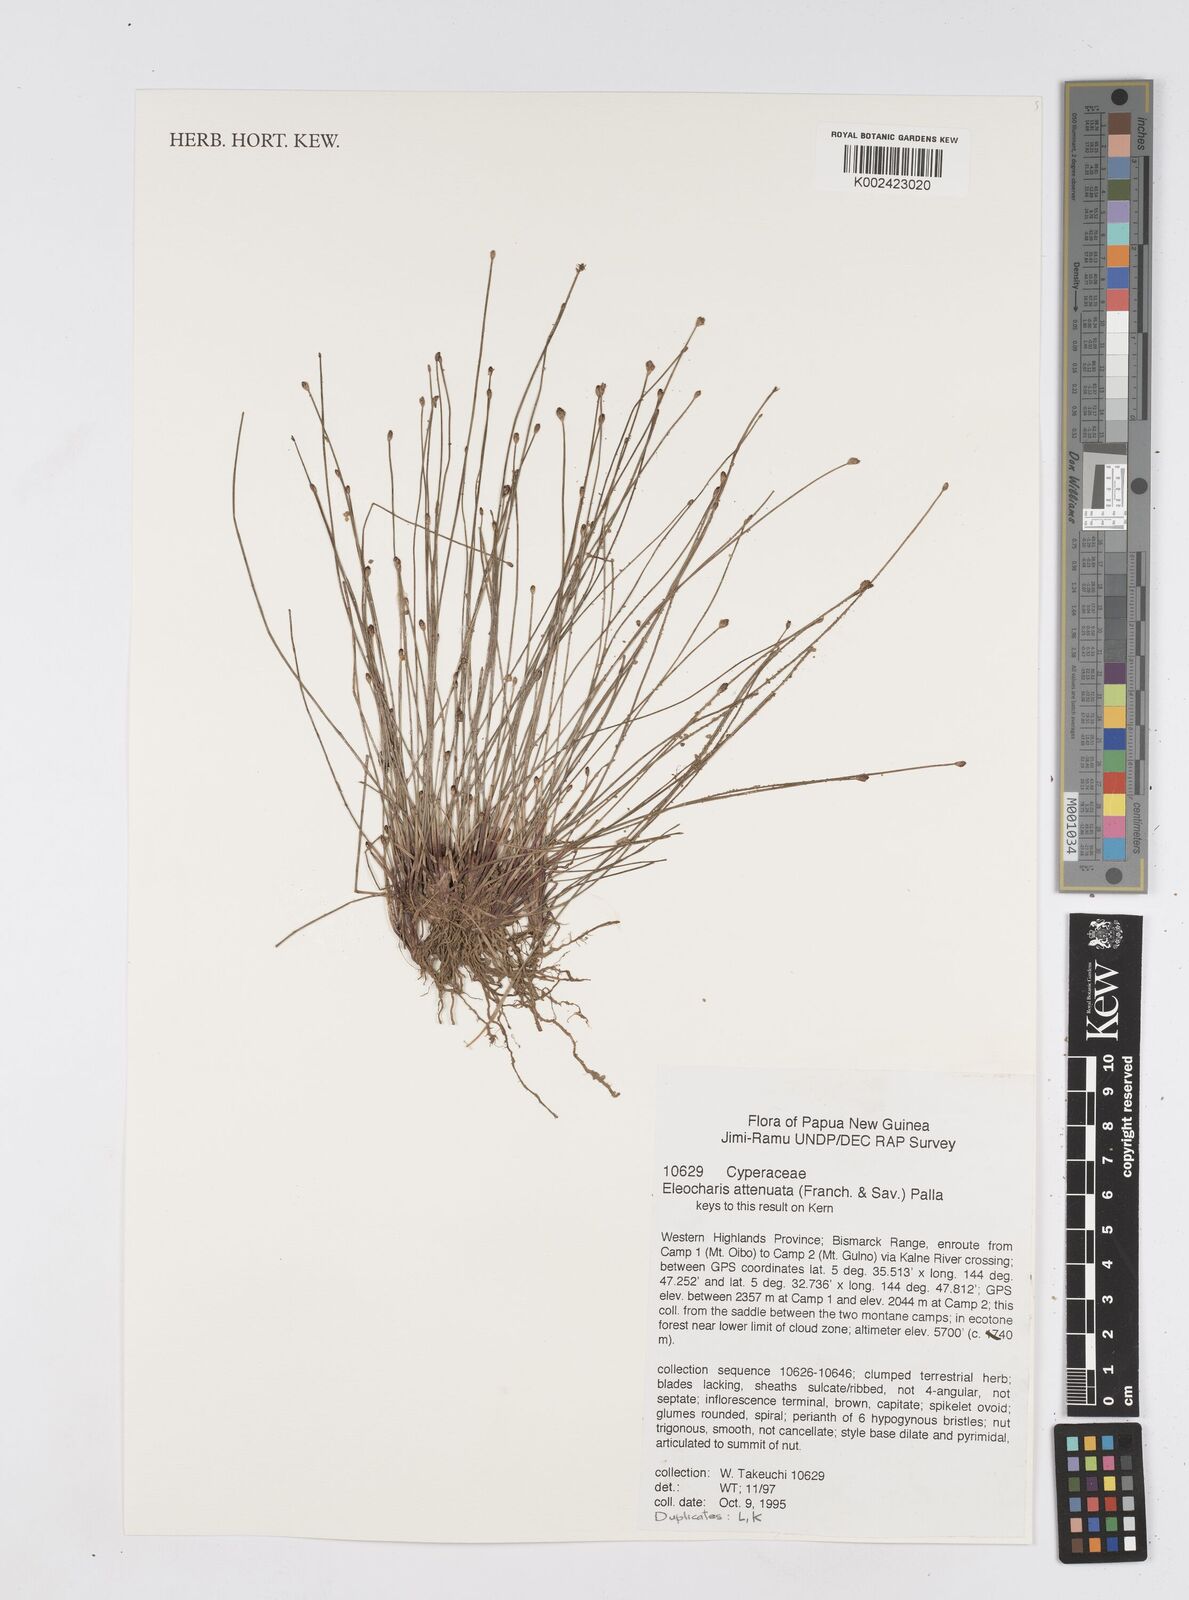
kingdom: Plantae
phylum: Tracheophyta
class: Liliopsida
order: Poales
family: Cyperaceae
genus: Eleocharis
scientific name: Eleocharis attenuata
